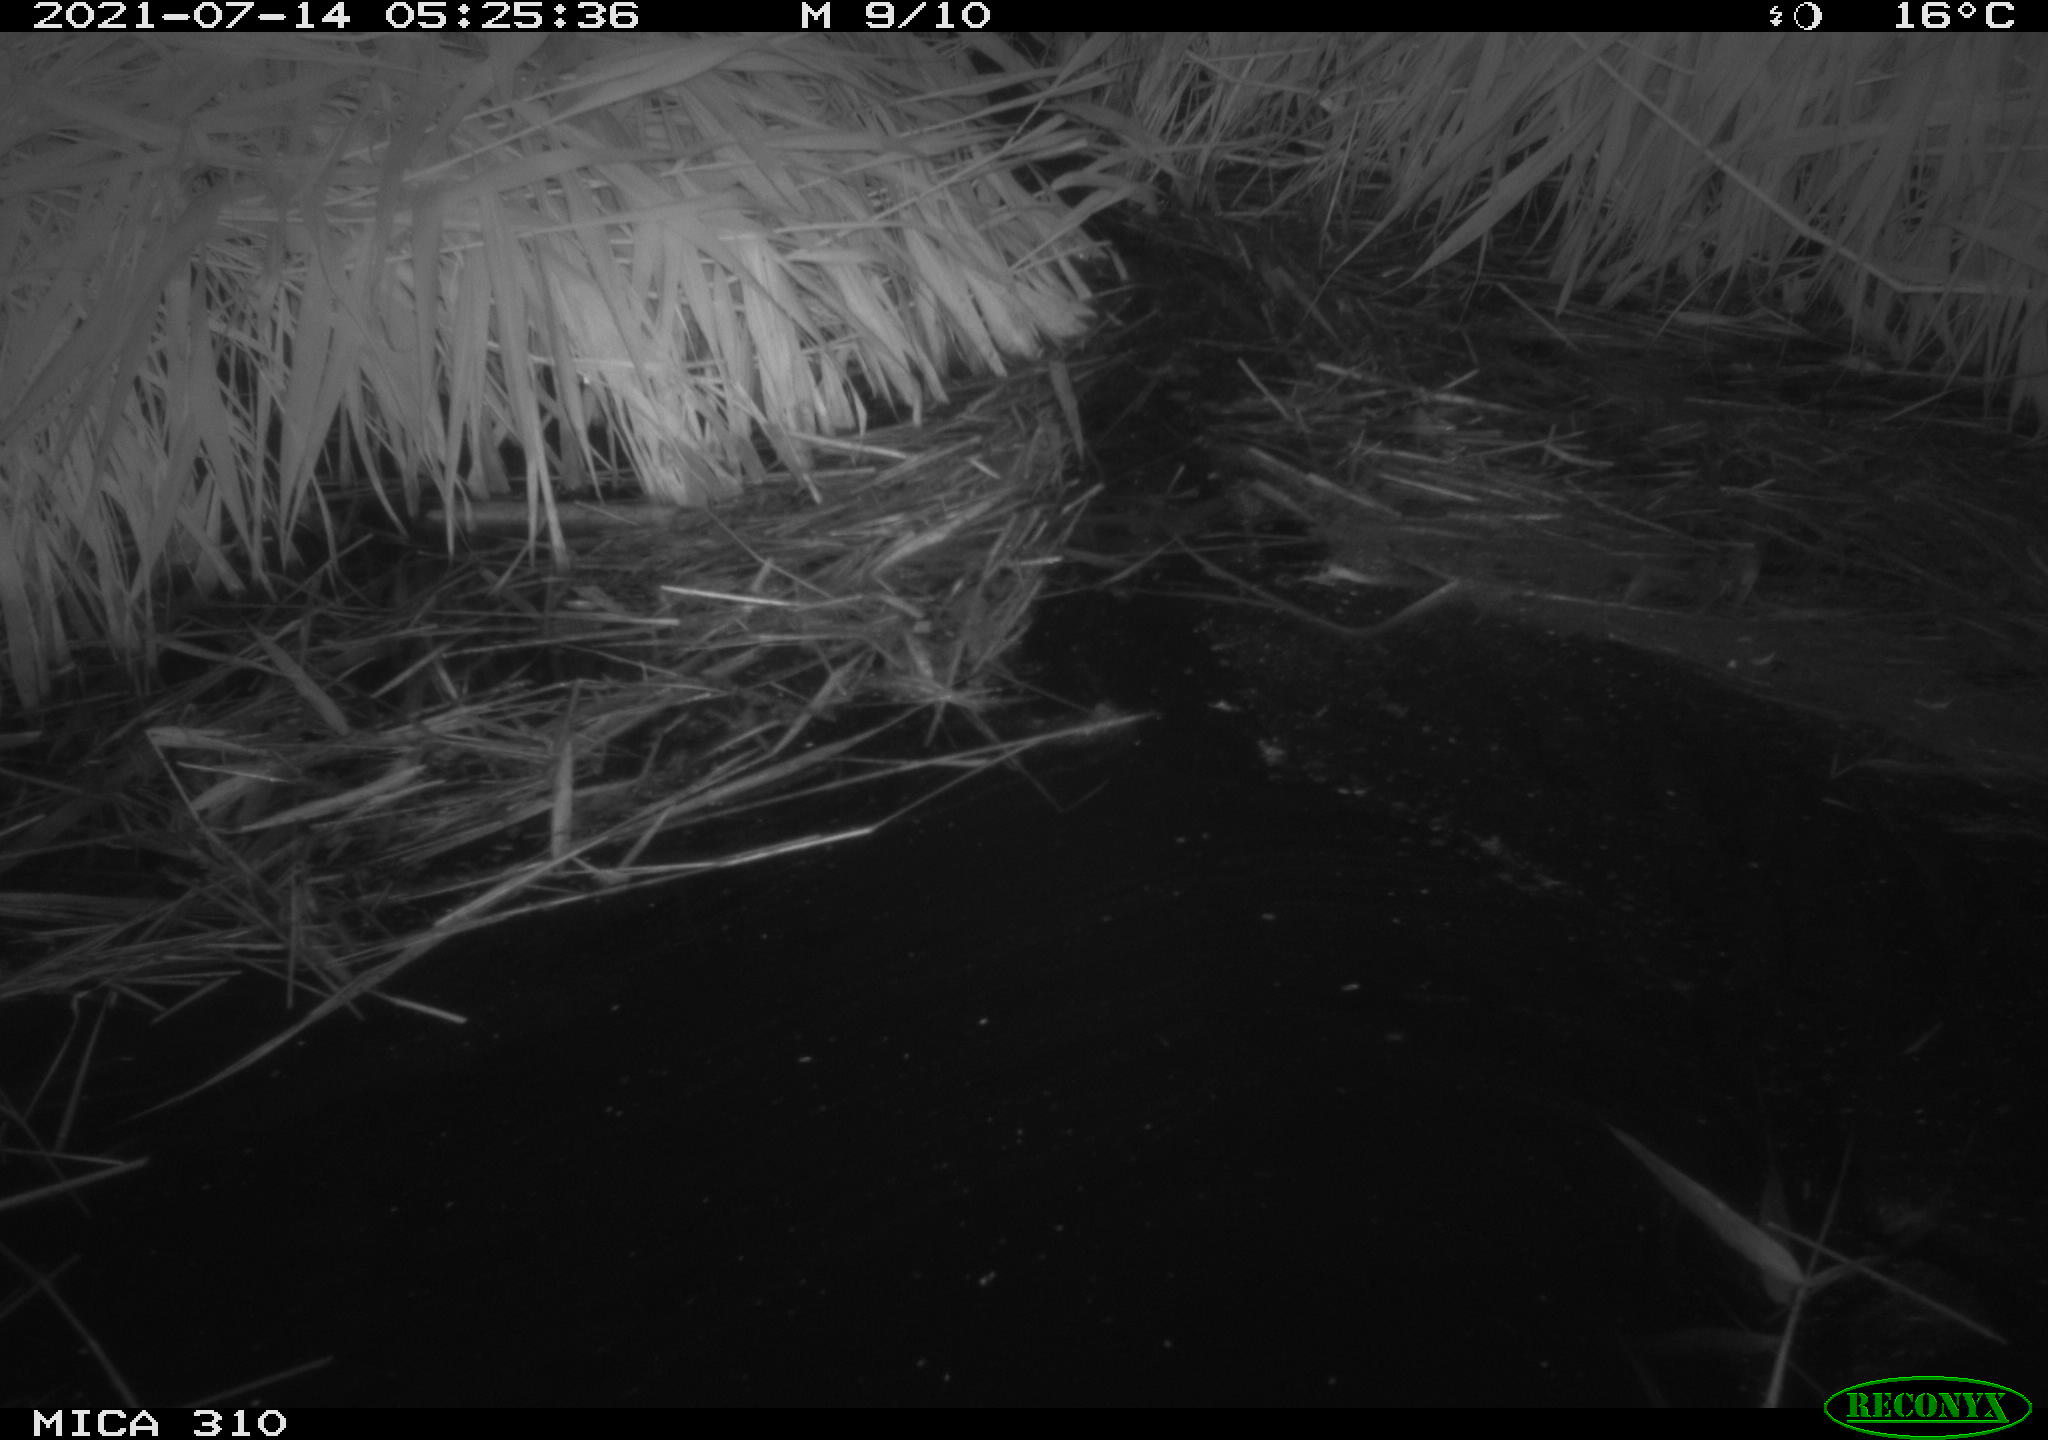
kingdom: Animalia
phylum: Chordata
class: Aves
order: Anseriformes
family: Anatidae
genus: Anas
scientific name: Anas platyrhynchos
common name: Mallard
